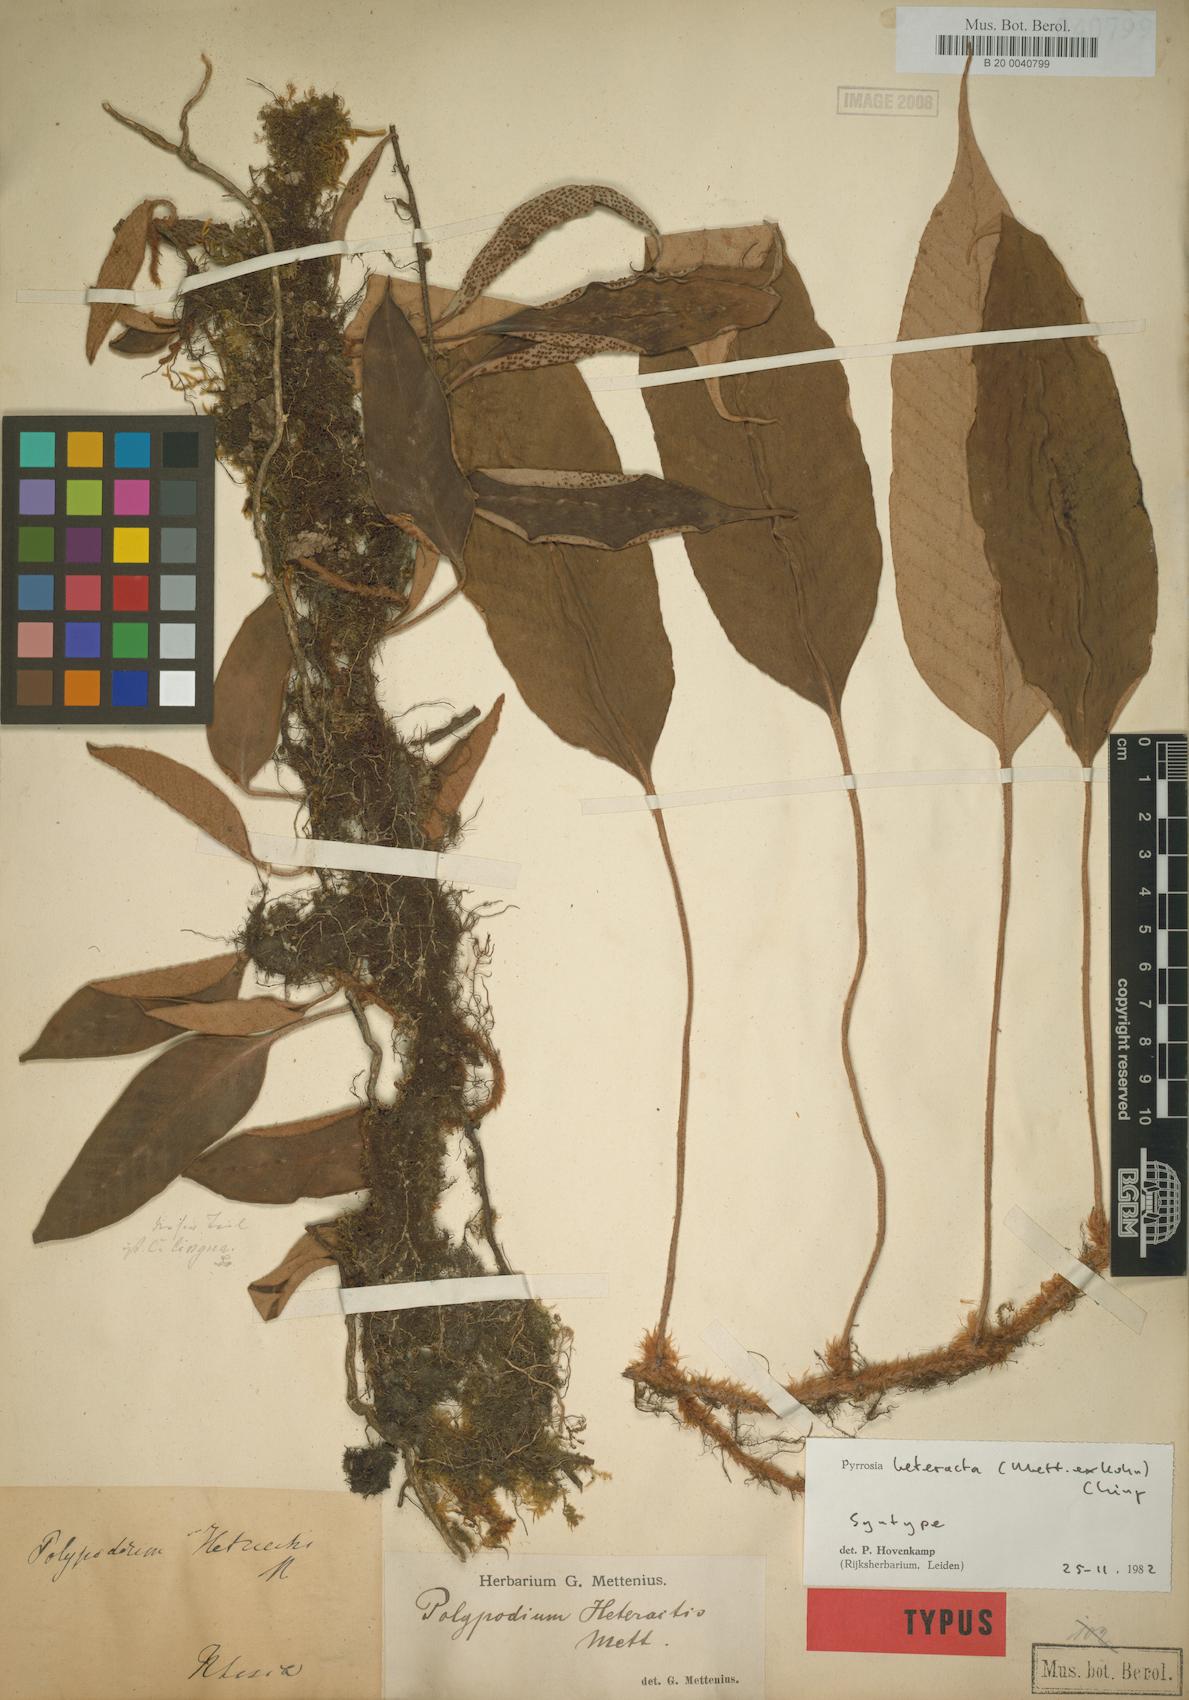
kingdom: Plantae
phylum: Tracheophyta
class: Polypodiopsida
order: Polypodiales
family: Polypodiaceae
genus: Pyrrosia
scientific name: Pyrrosia heteractis
